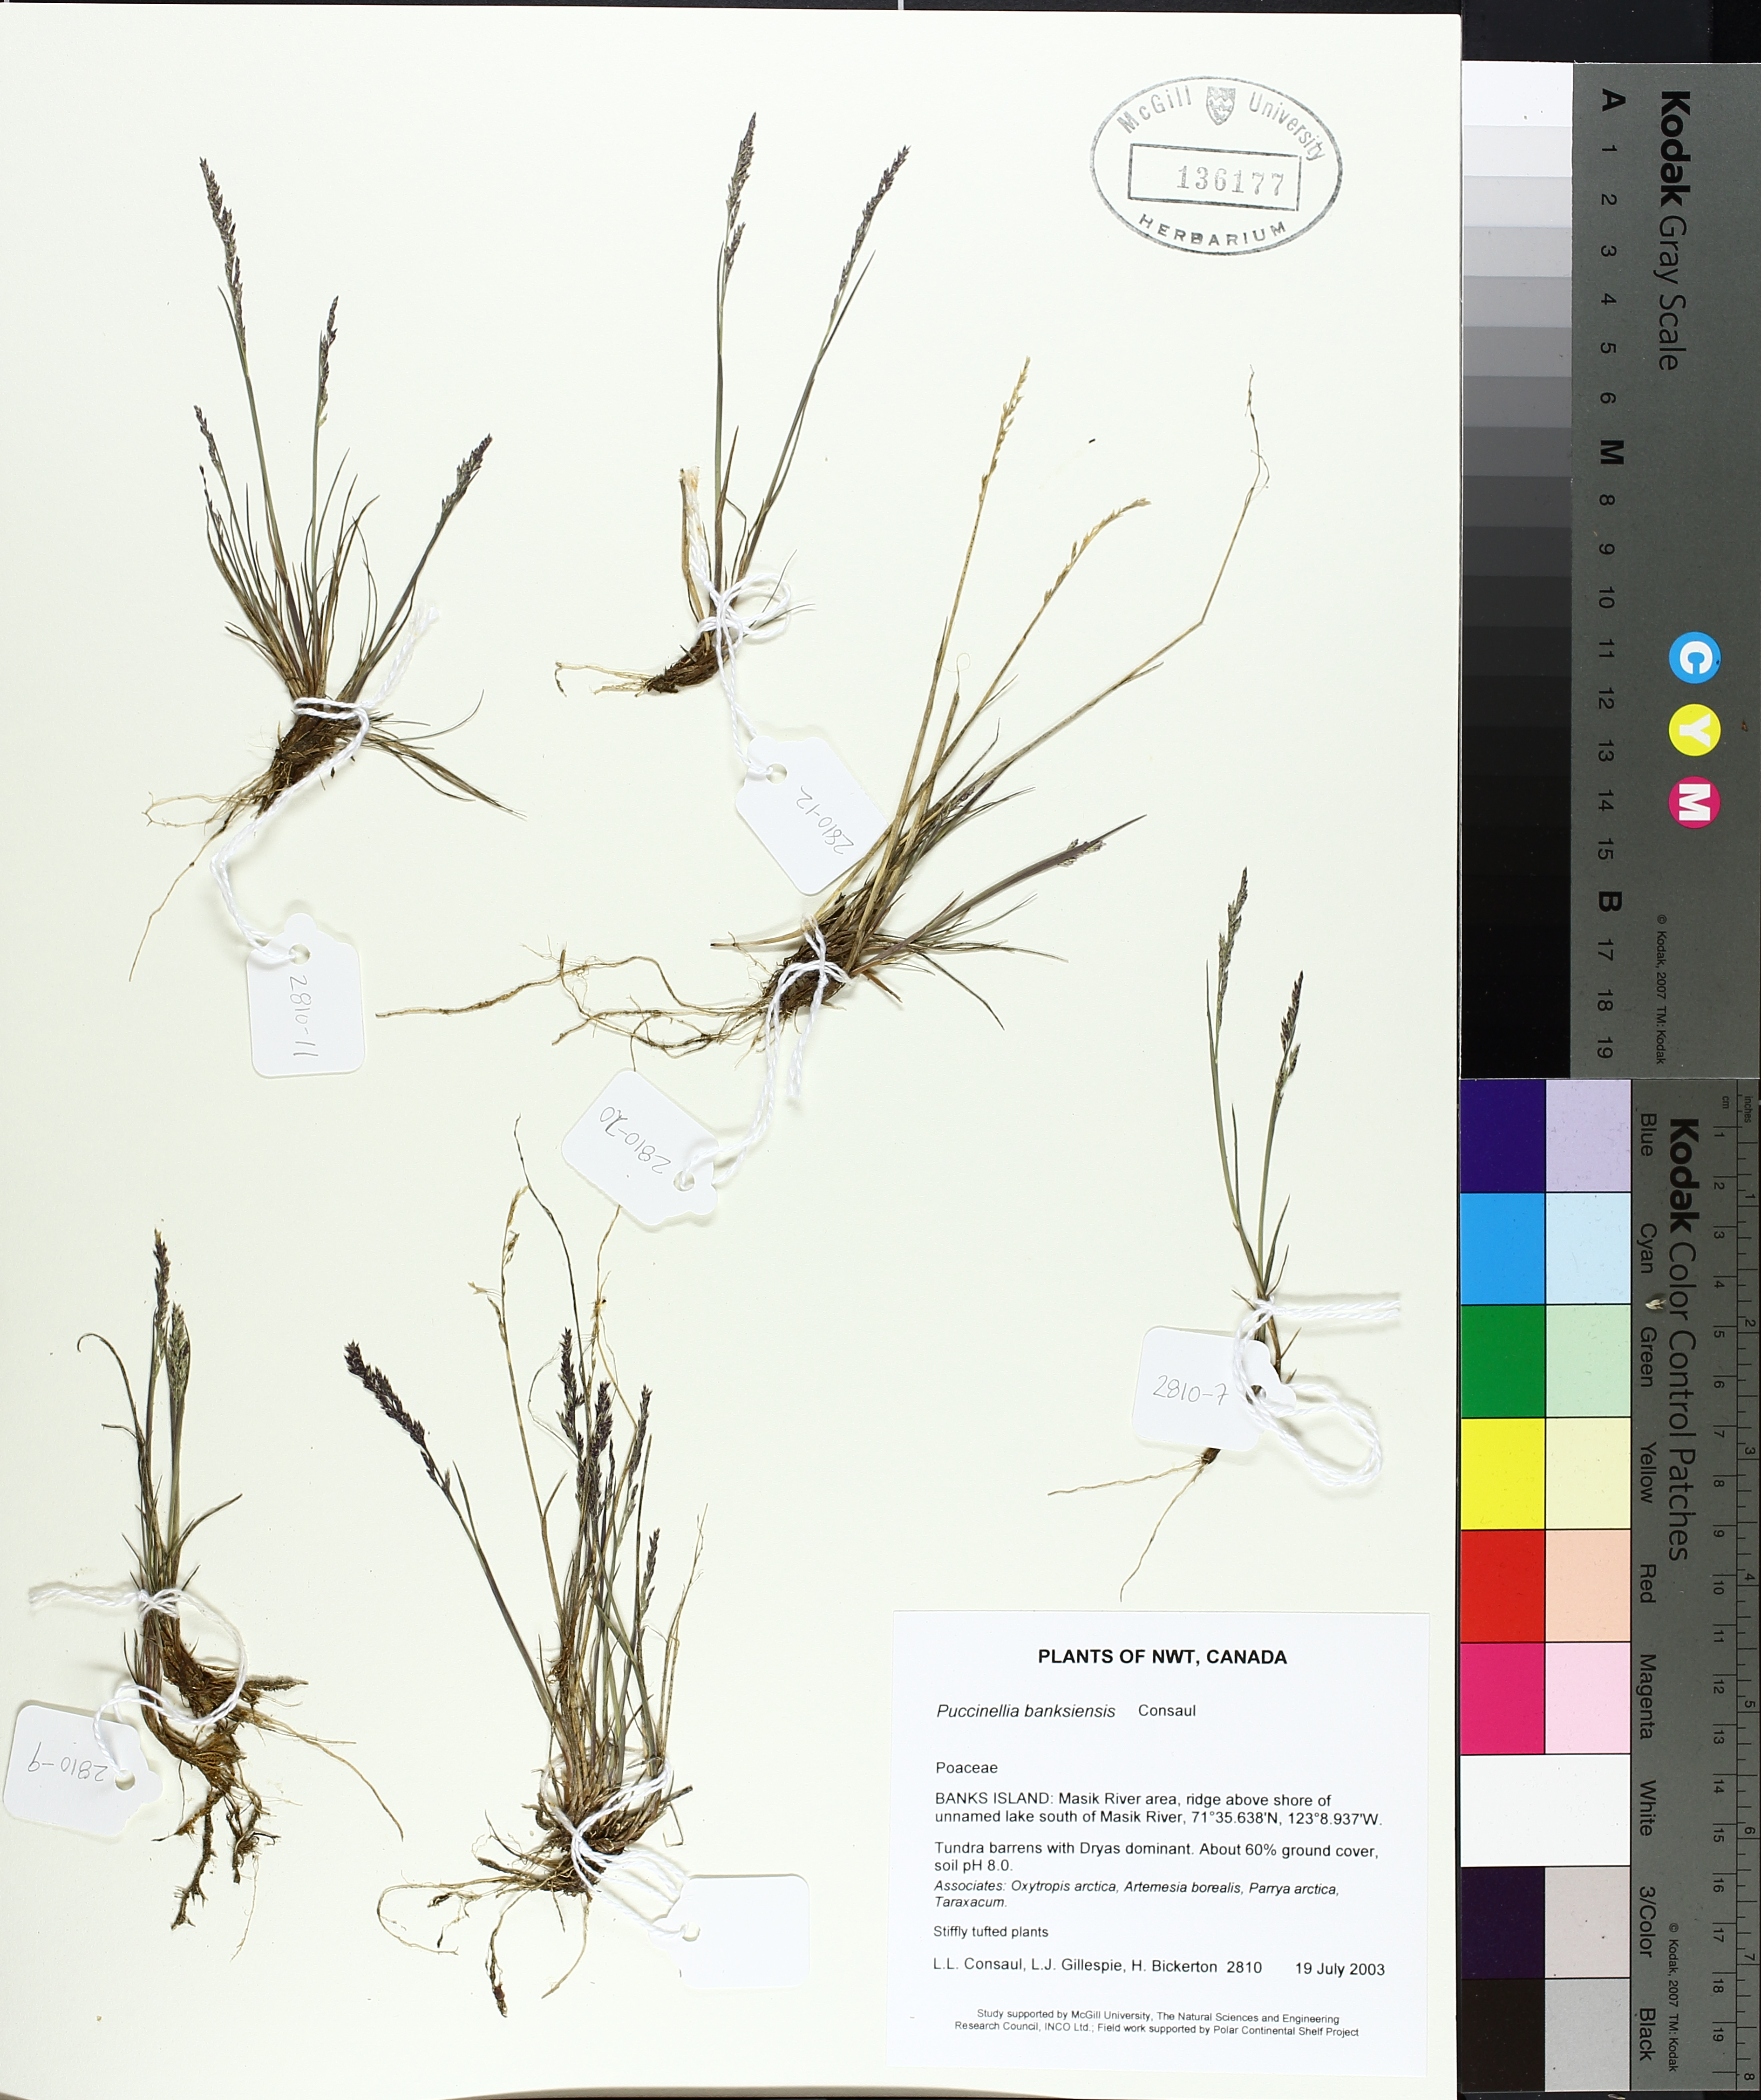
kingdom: Plantae
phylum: Tracheophyta
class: Liliopsida
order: Poales
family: Poaceae
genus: Puccinellia
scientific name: Puccinellia banksiensis
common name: Banks island alkaligrass
